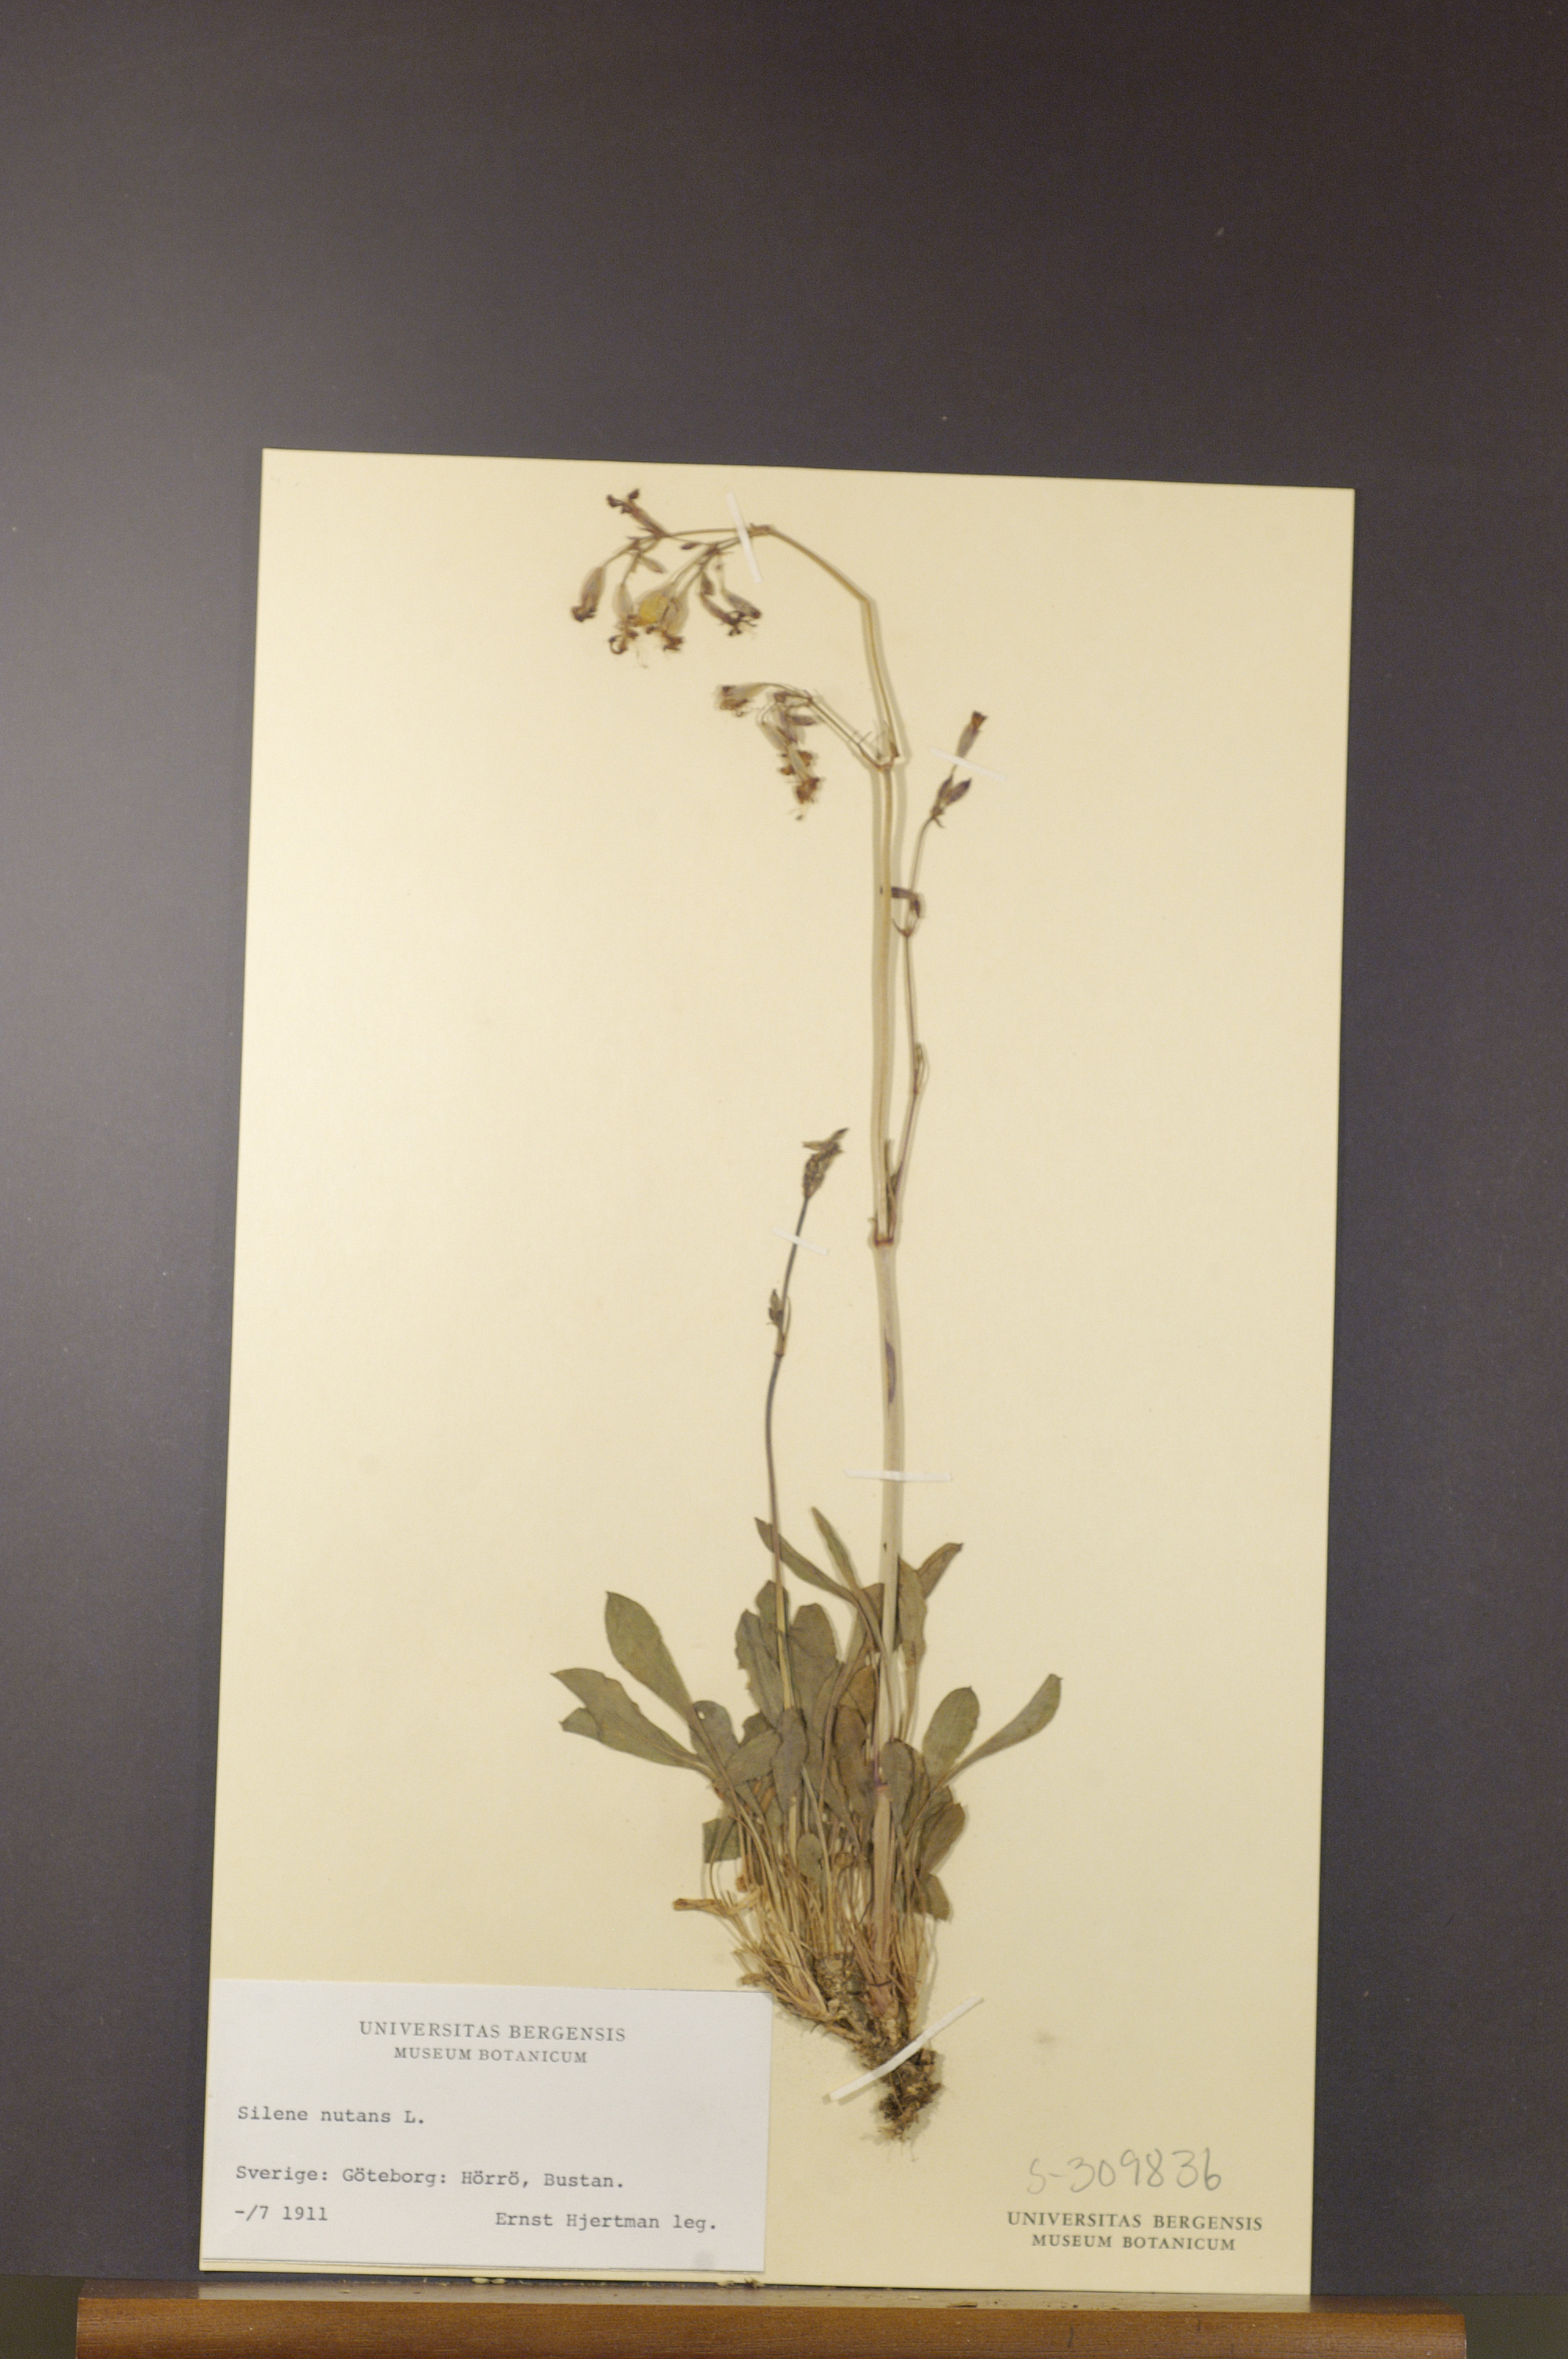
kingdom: Plantae
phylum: Tracheophyta
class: Magnoliopsida
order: Caryophyllales
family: Caryophyllaceae
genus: Silene
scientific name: Silene nutans
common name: Nottingham catchfly
